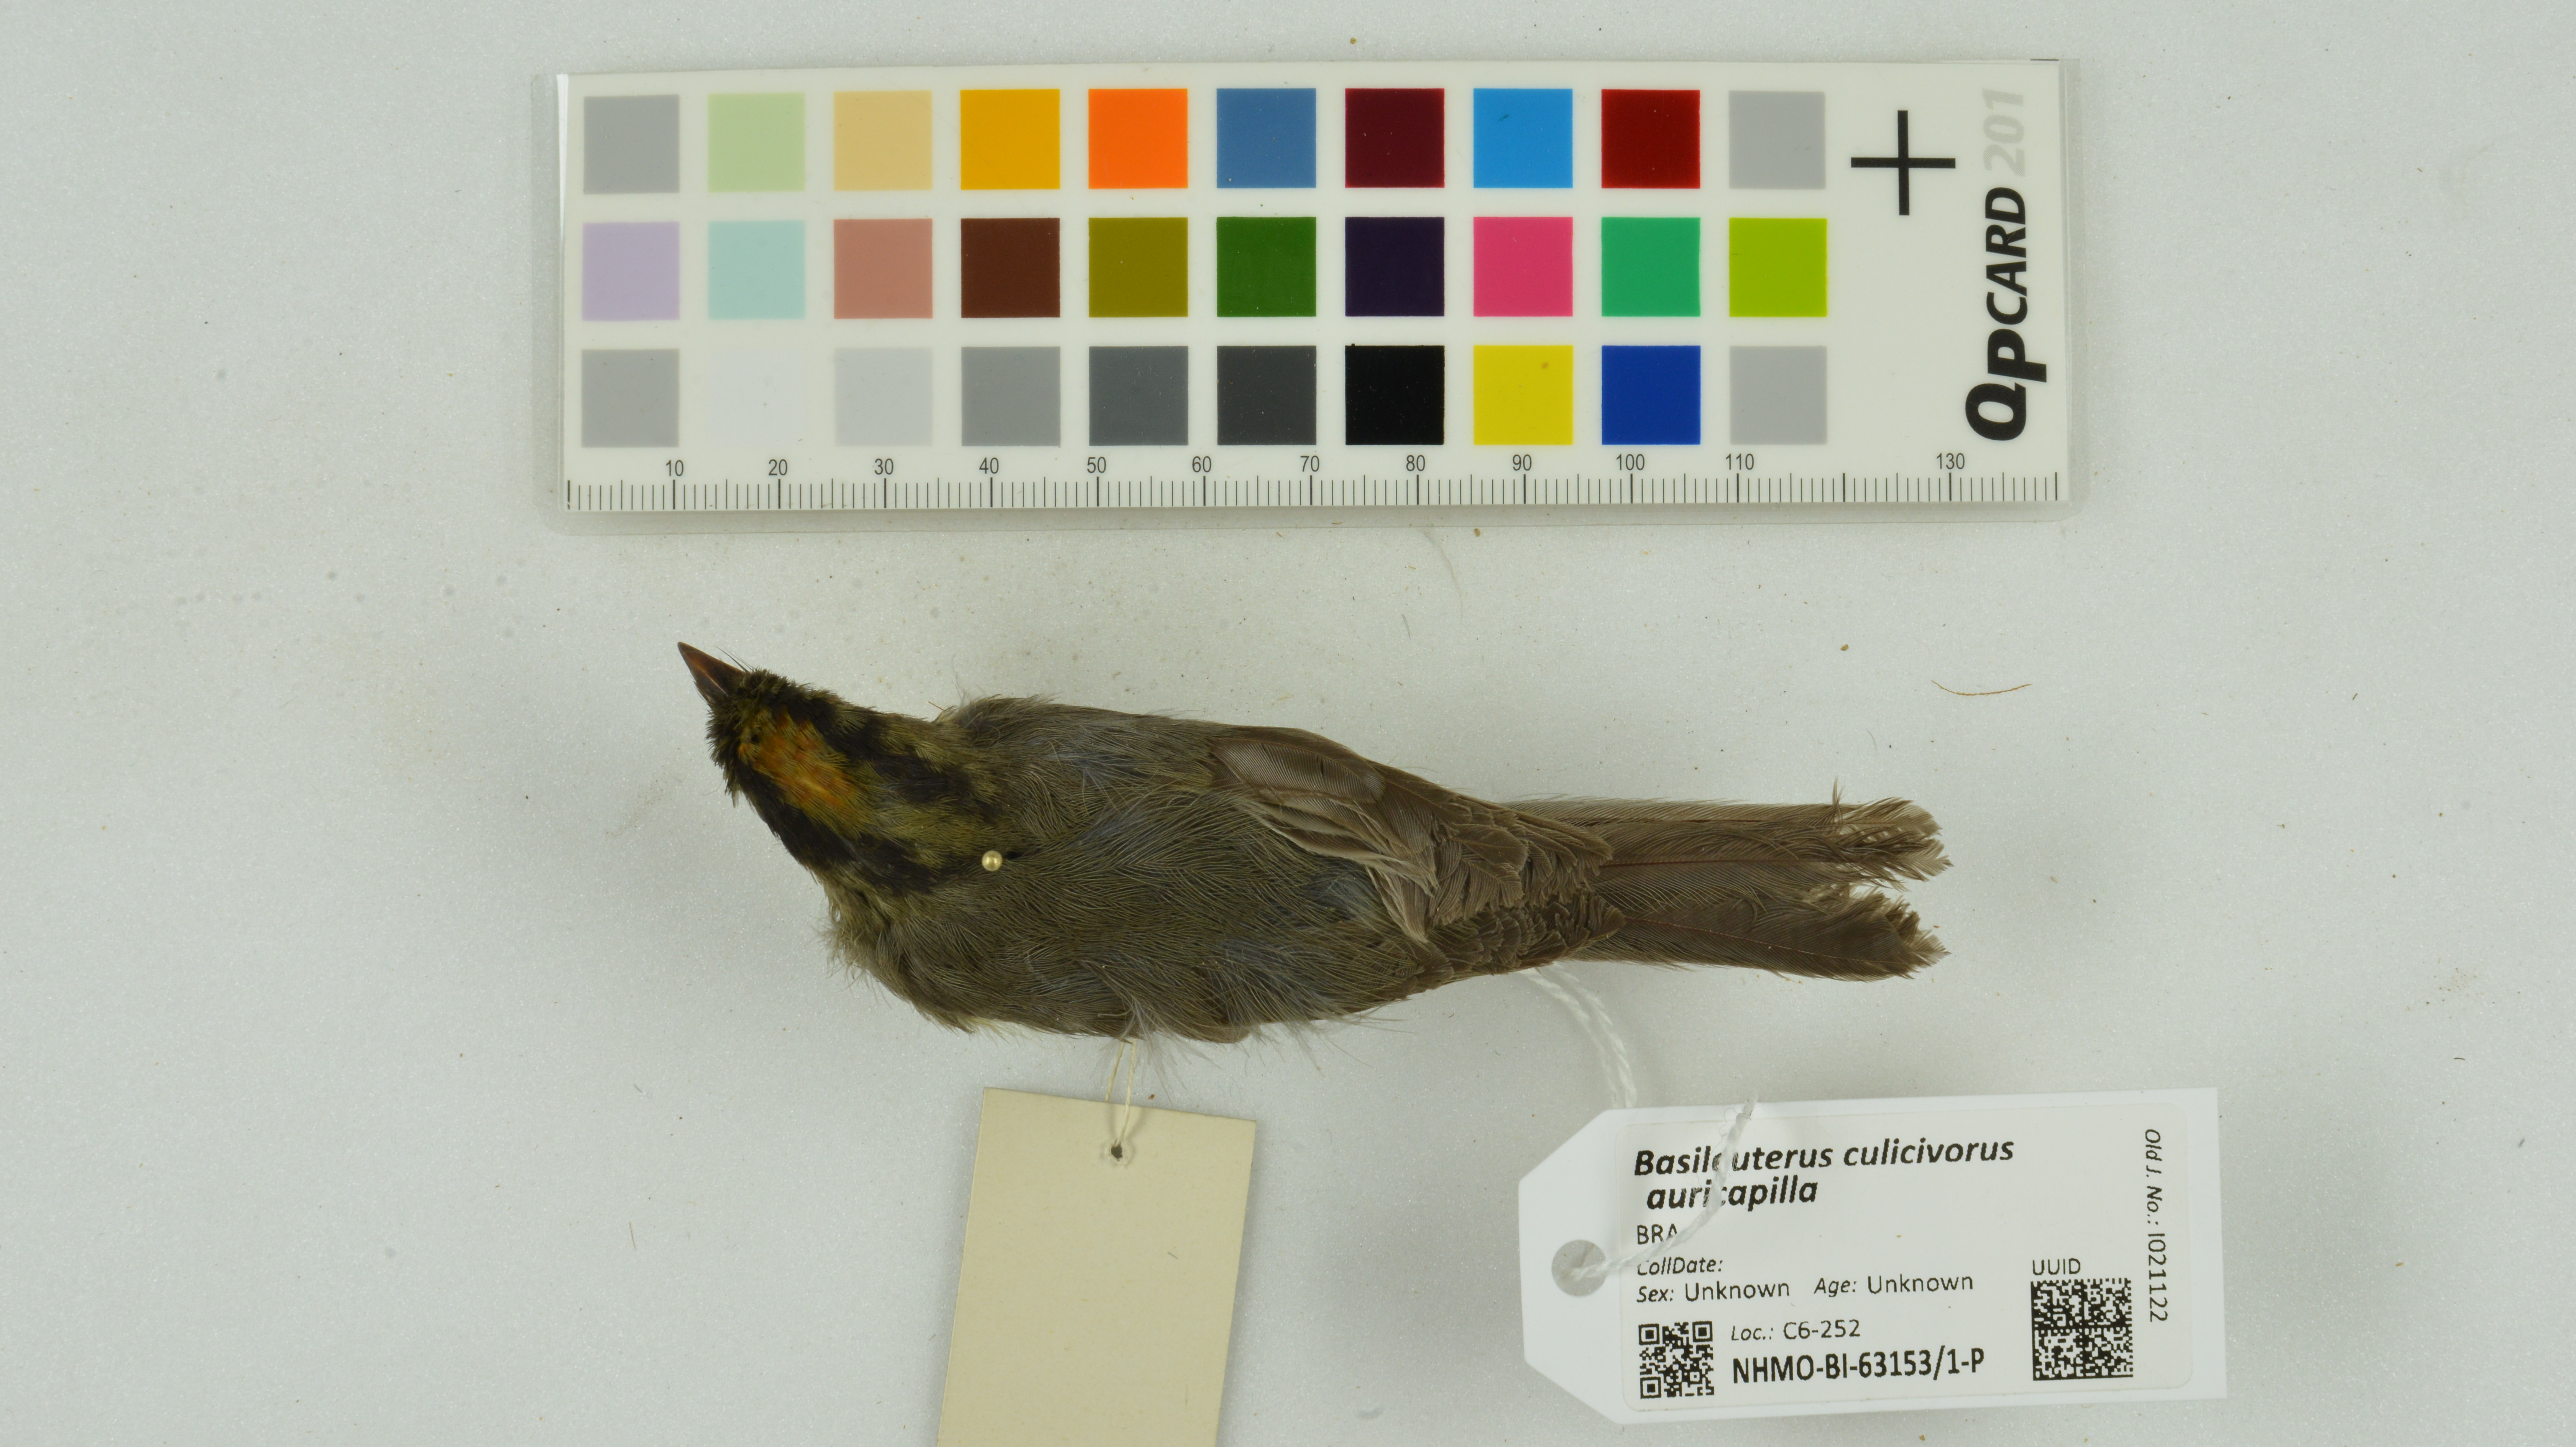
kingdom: Animalia
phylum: Chordata
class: Aves
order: Passeriformes
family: Parulidae
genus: Basileuterus
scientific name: Basileuterus culicivorus
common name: Golden-crowned warbler
